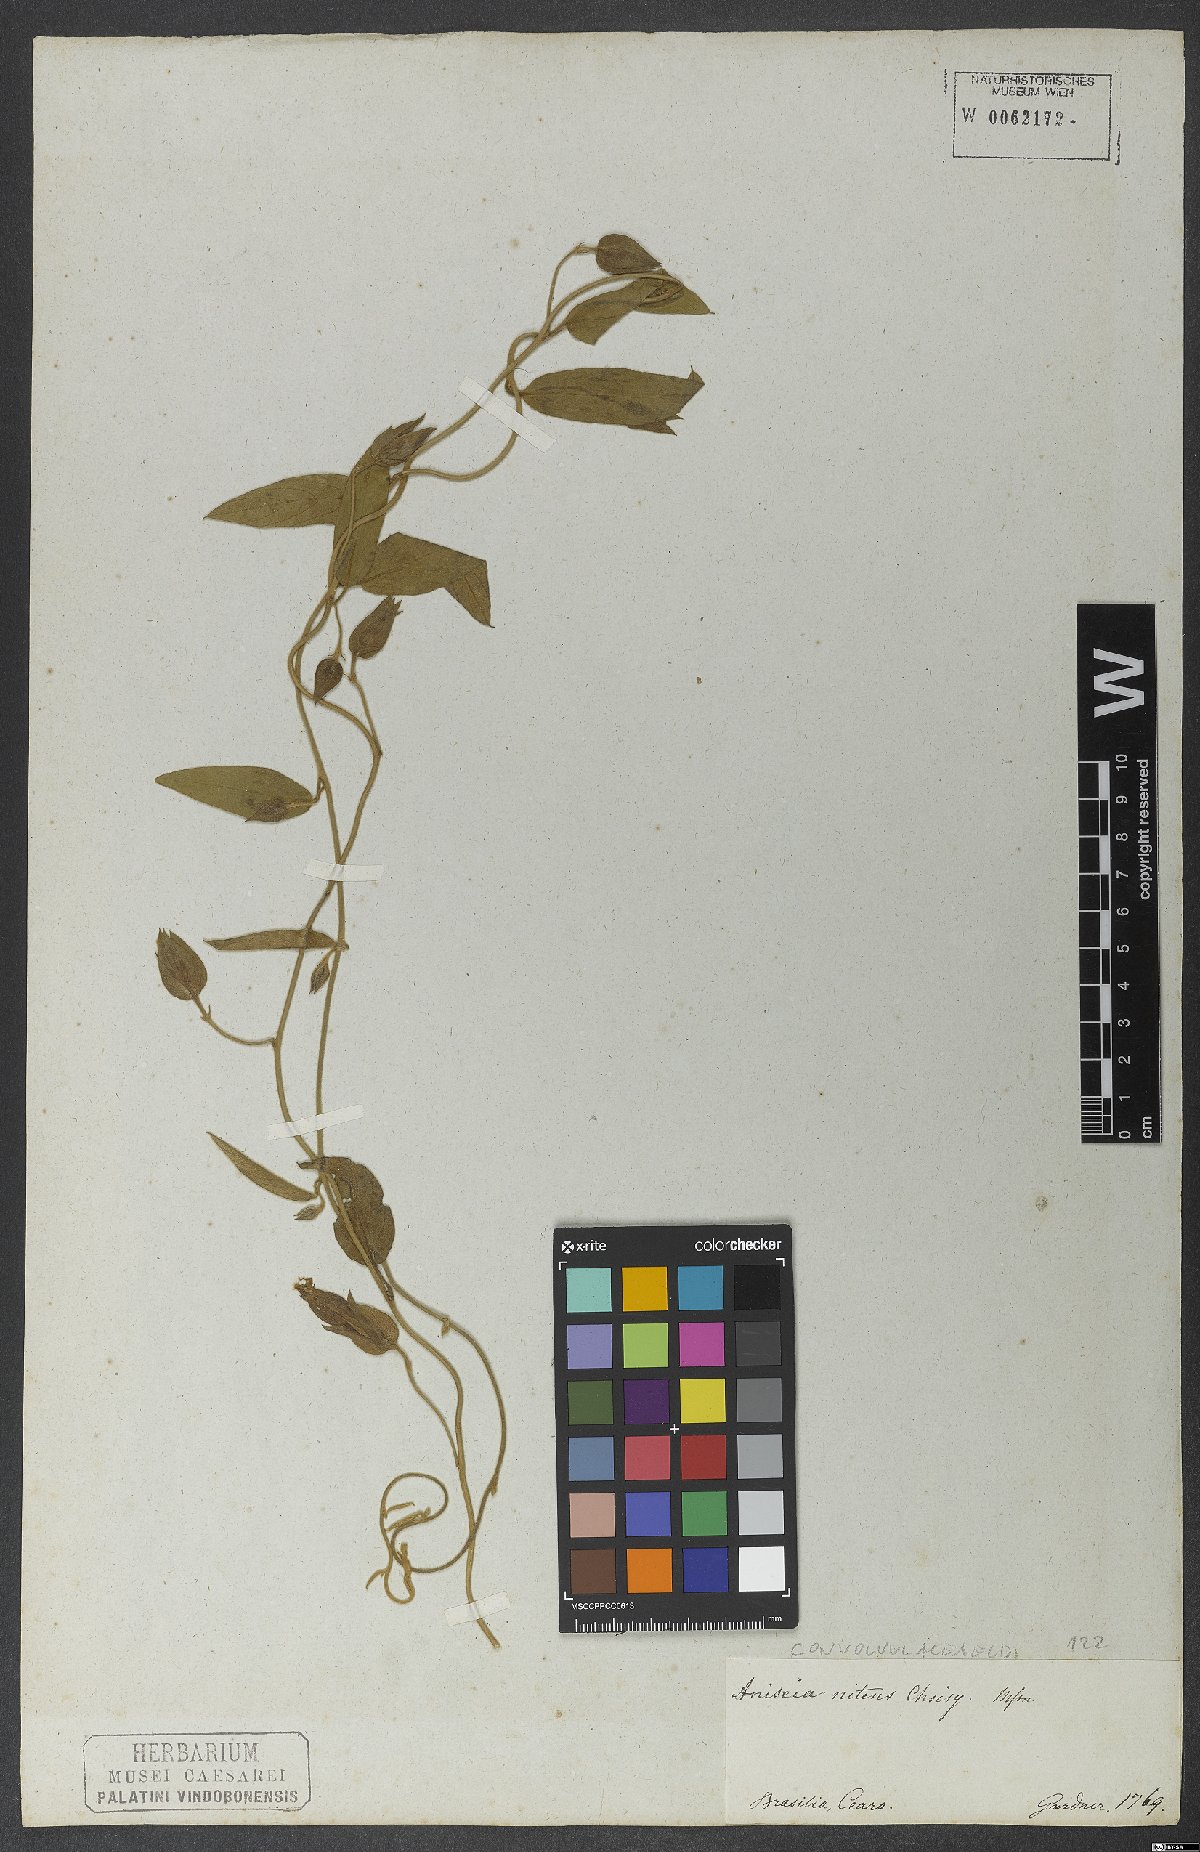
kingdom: Plantae
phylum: Tracheophyta
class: Magnoliopsida
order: Solanales
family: Convolvulaceae
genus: Aniseia
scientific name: Aniseia martinicensis
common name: Kulayadambu
